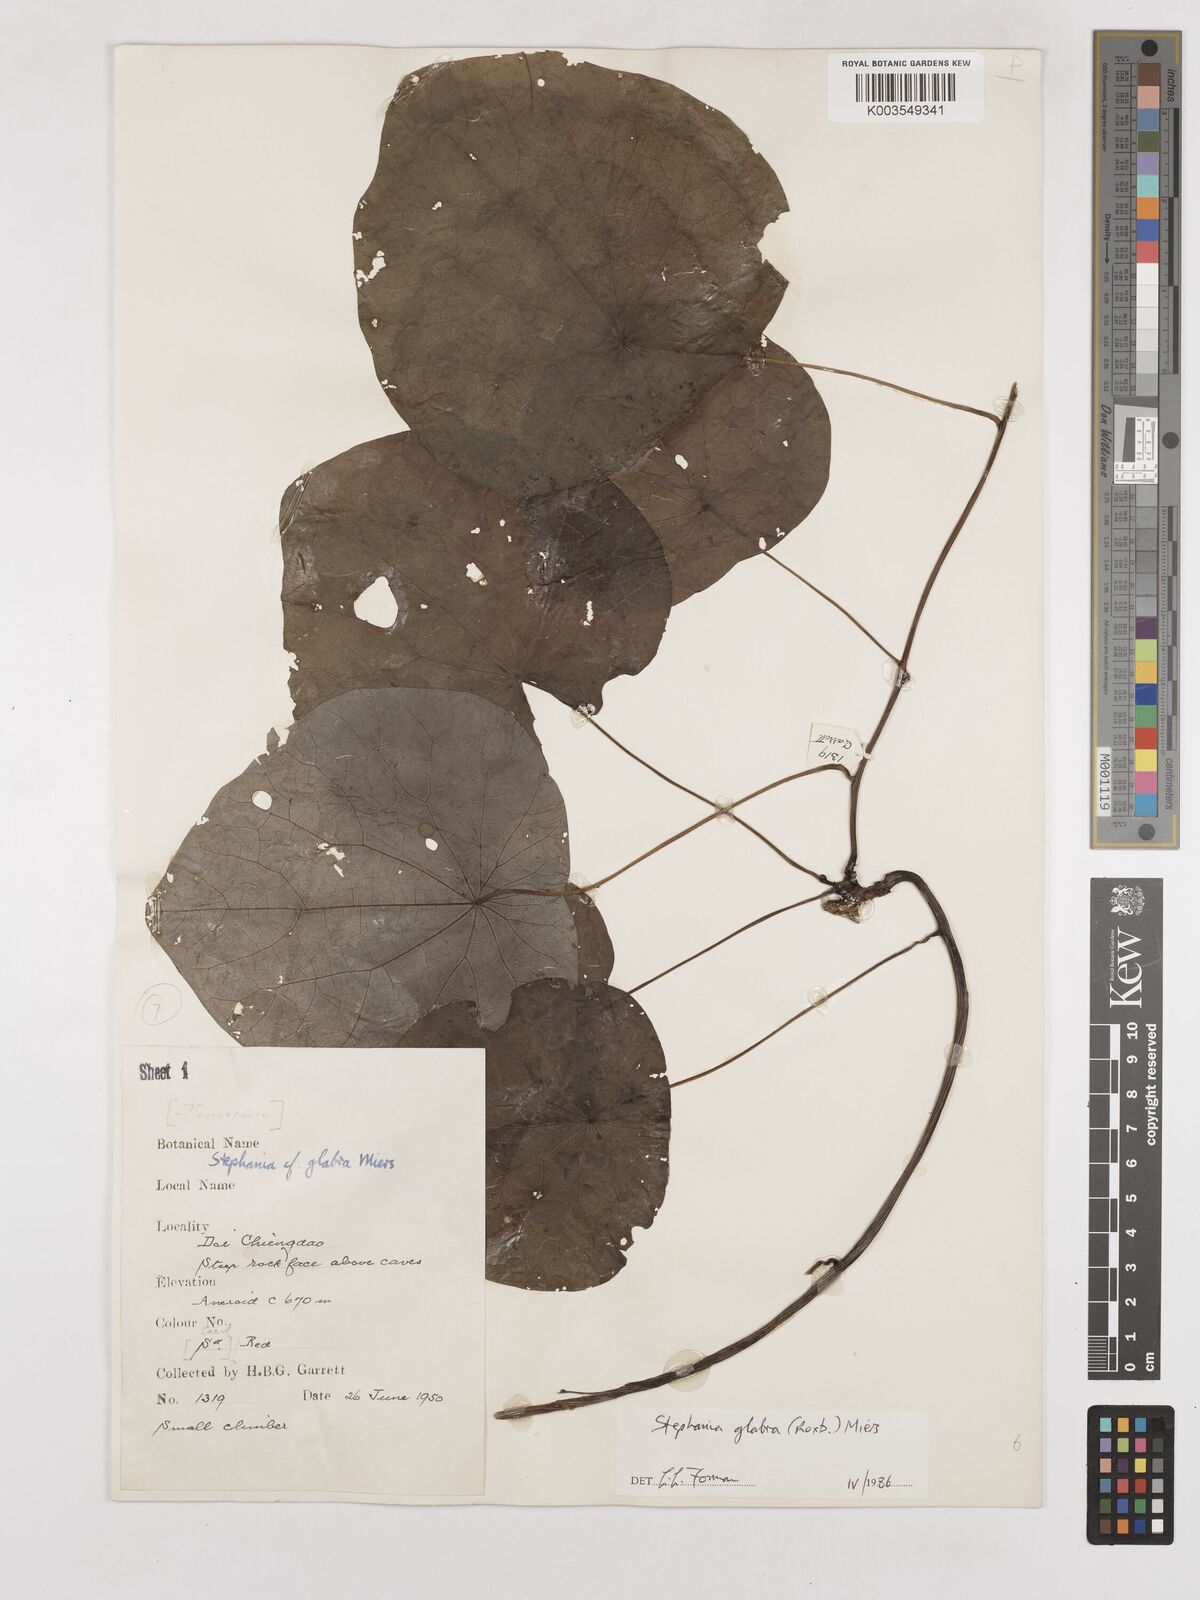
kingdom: Plantae
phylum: Tracheophyta
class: Magnoliopsida
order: Ranunculales
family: Menispermaceae
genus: Stephania
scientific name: Stephania rotunda
